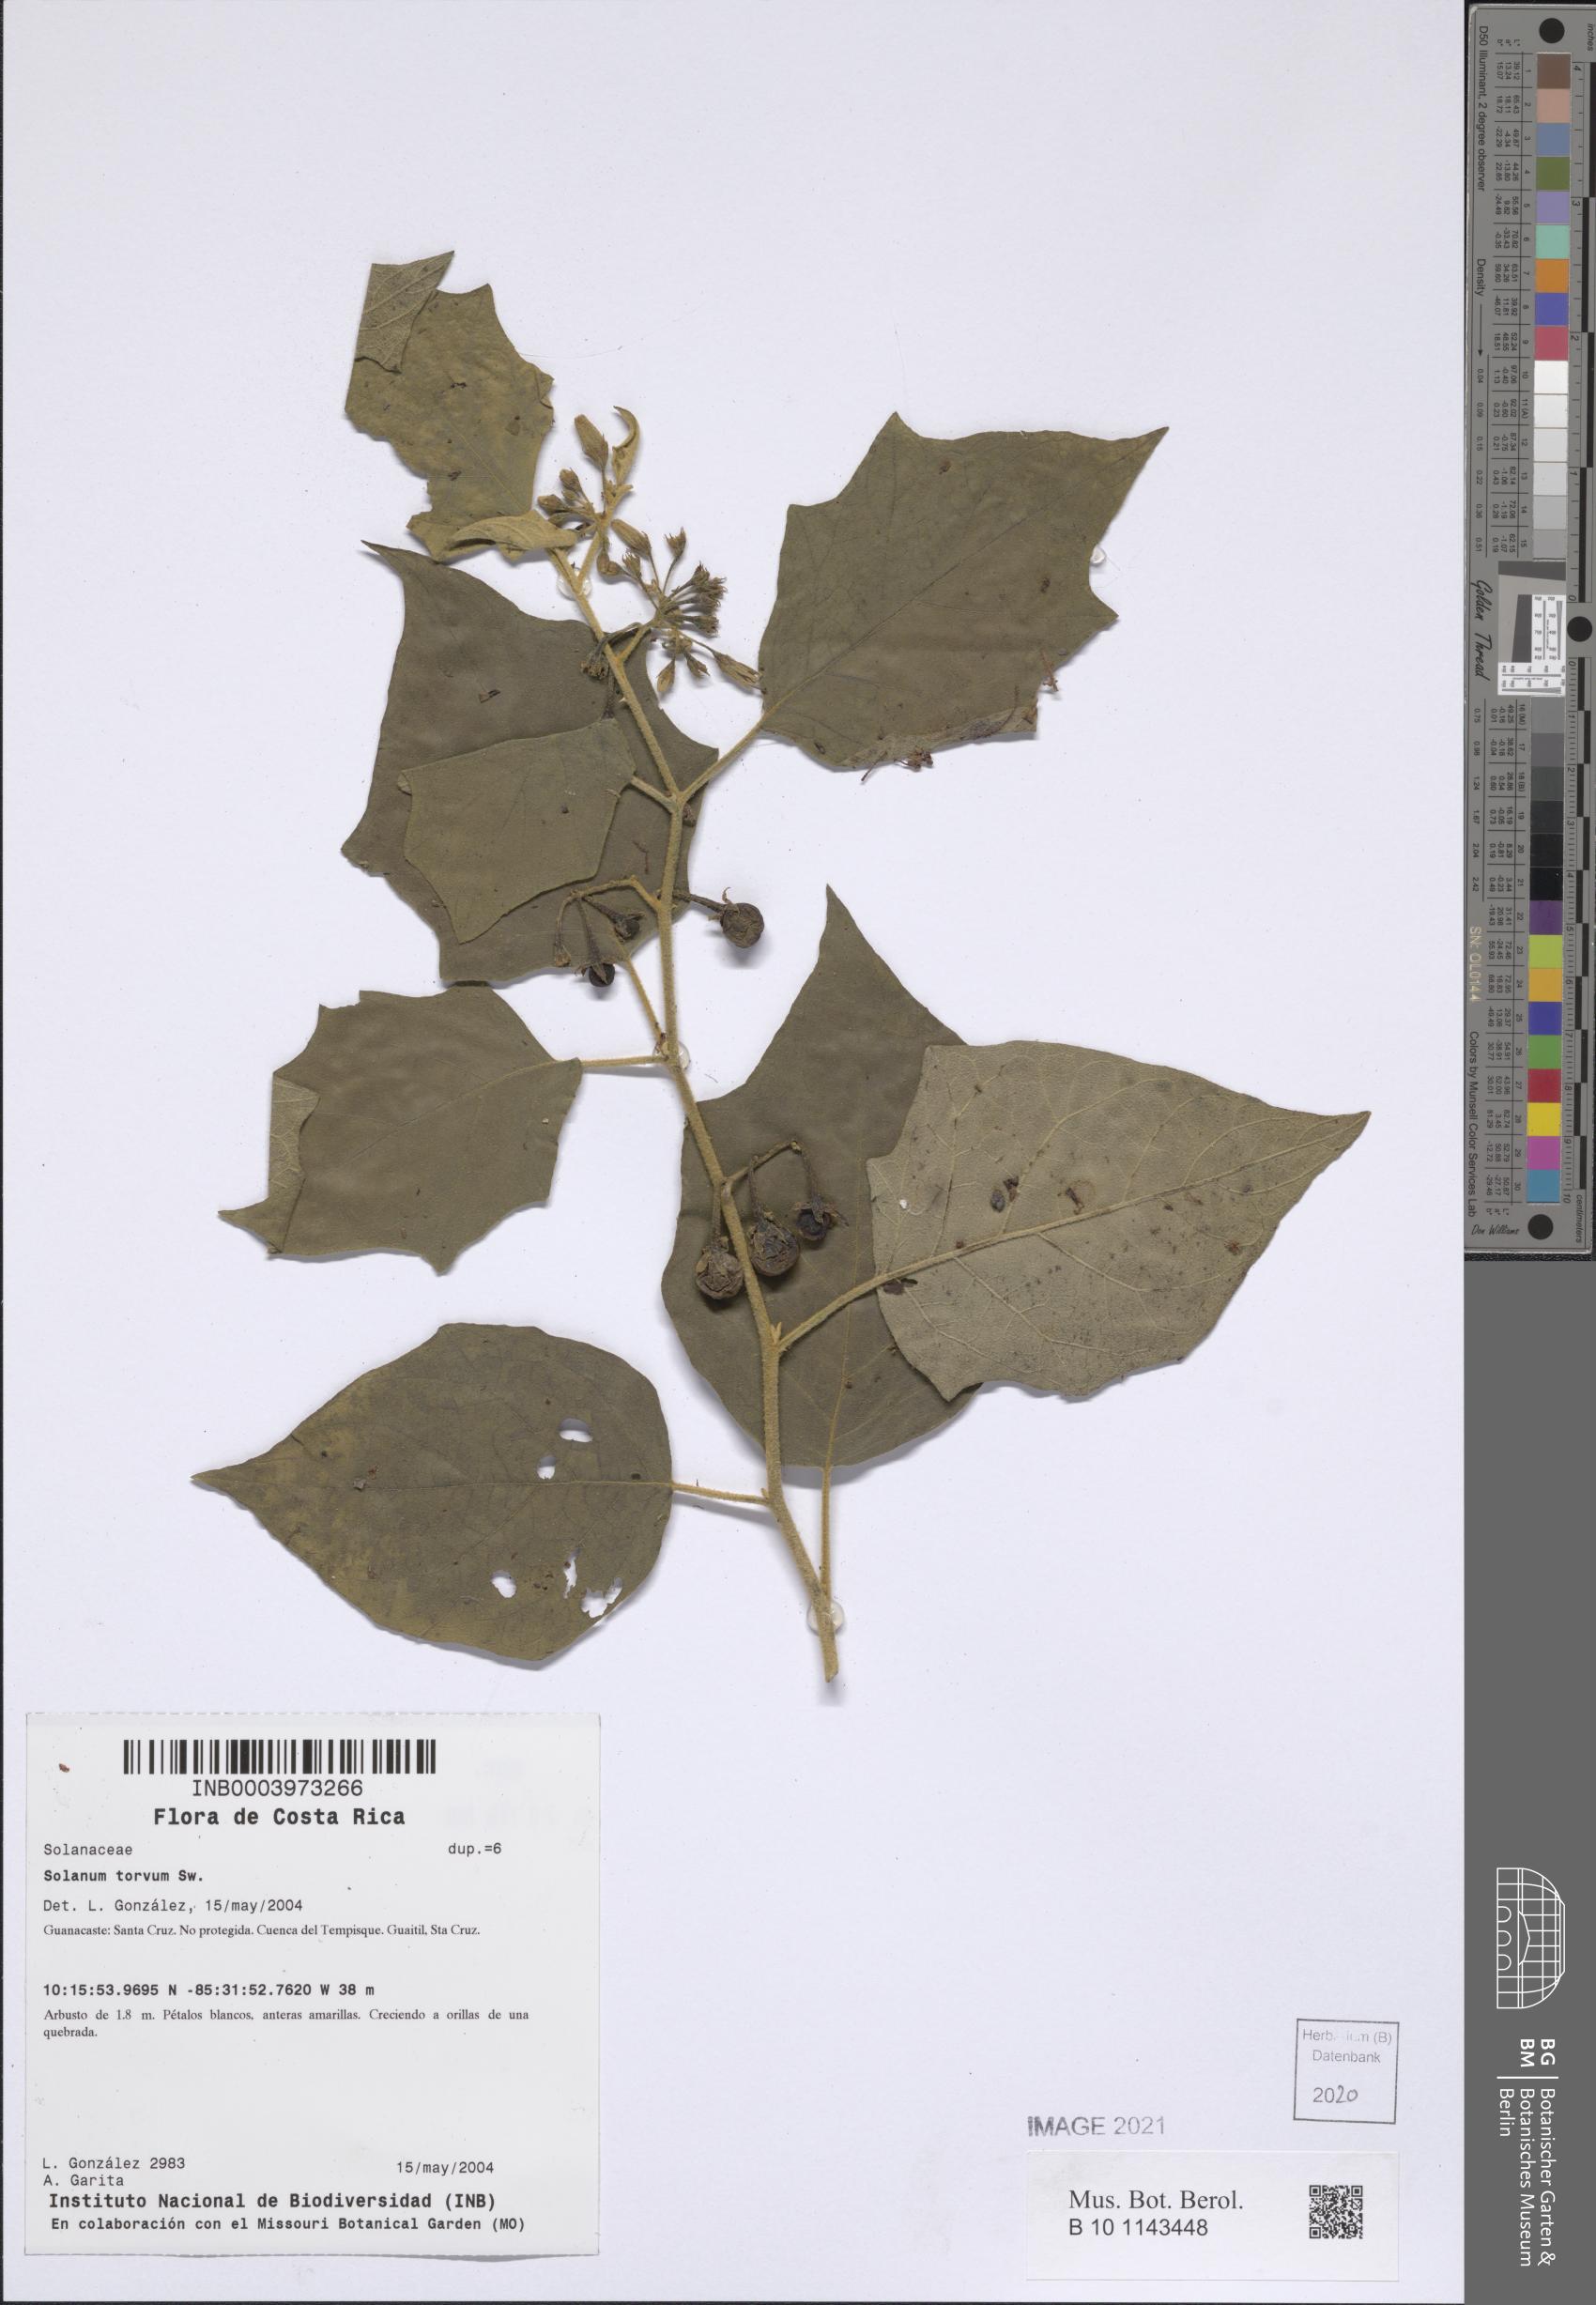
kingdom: Plantae
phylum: Tracheophyta
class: Magnoliopsida
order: Solanales
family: Solanaceae
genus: Solanum
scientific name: Solanum torvum
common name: Turkey berry
